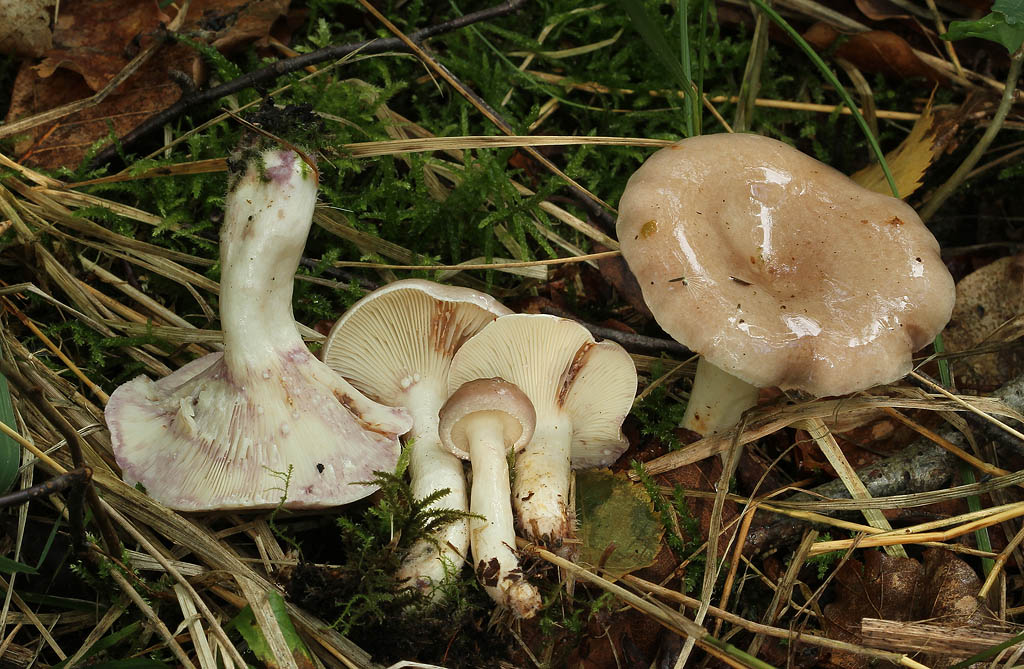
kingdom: Fungi
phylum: Basidiomycota
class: Agaricomycetes
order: Russulales
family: Russulaceae
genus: Lactarius
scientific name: Lactarius uvidus
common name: violetkødet mælkehat
